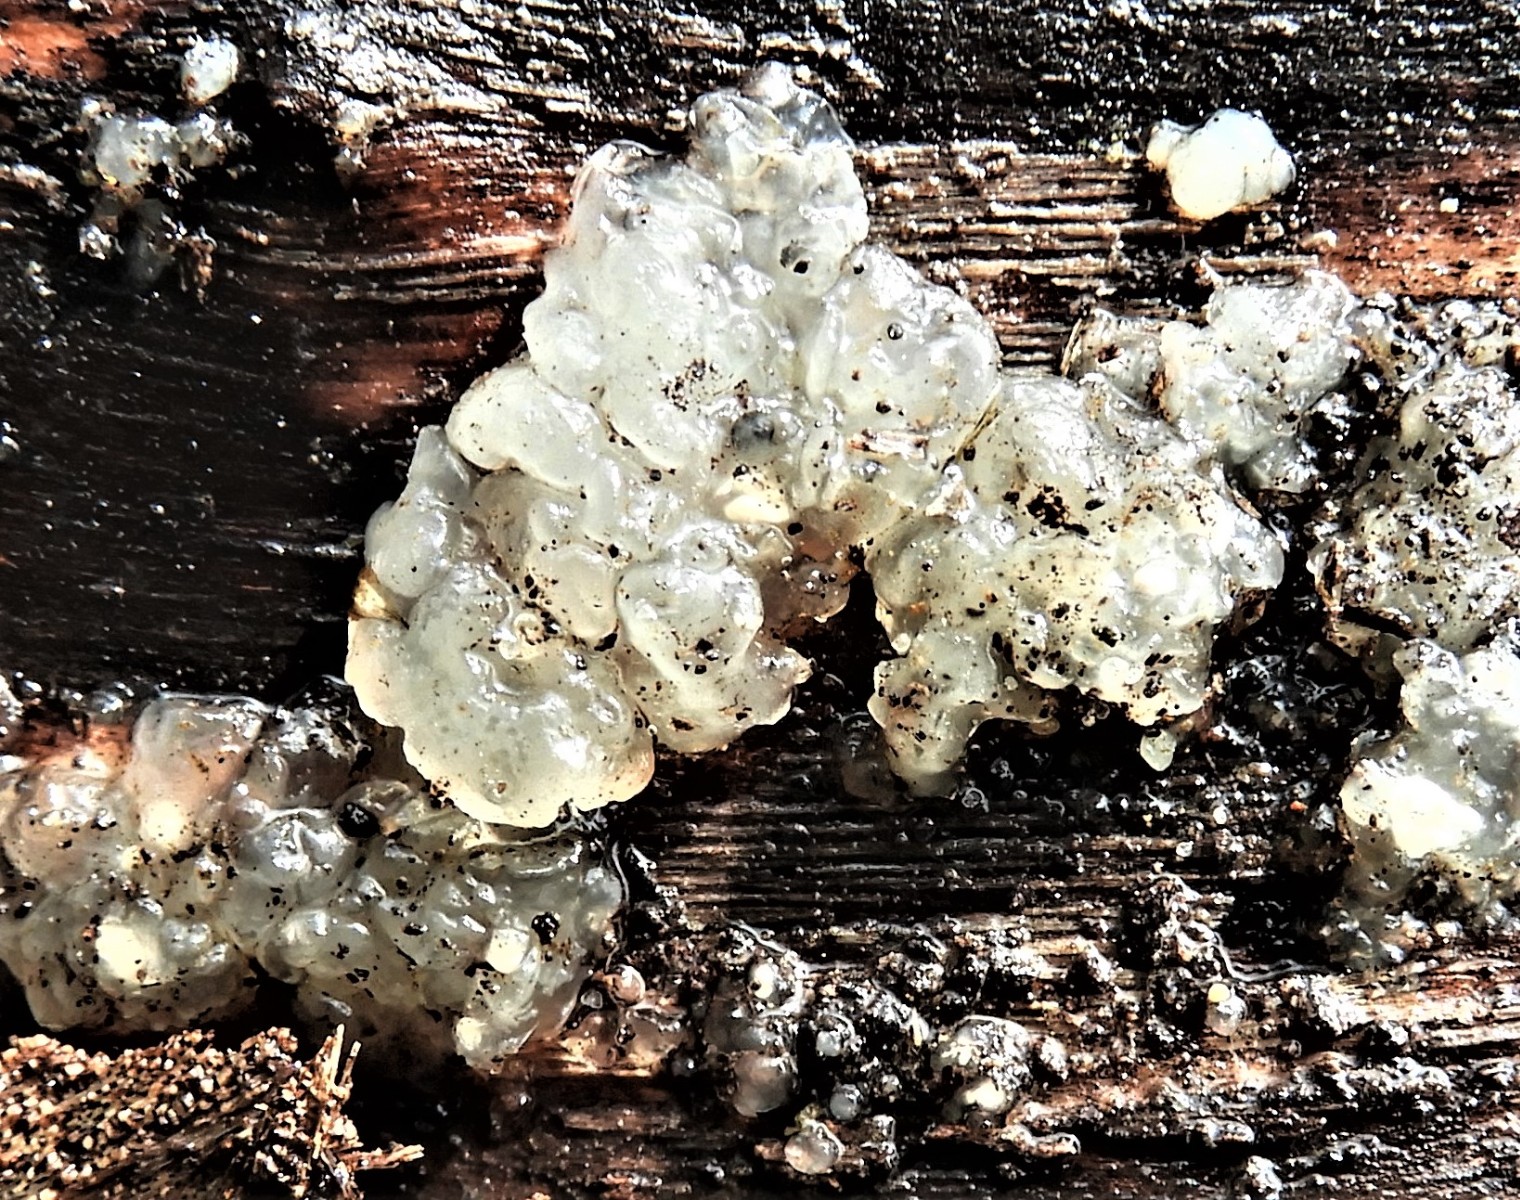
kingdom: Fungi
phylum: Basidiomycota
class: Agaricomycetes
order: Auriculariales
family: Hyaloriaceae
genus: Myxarium
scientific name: Myxarium nucleatum
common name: klar bævretop
